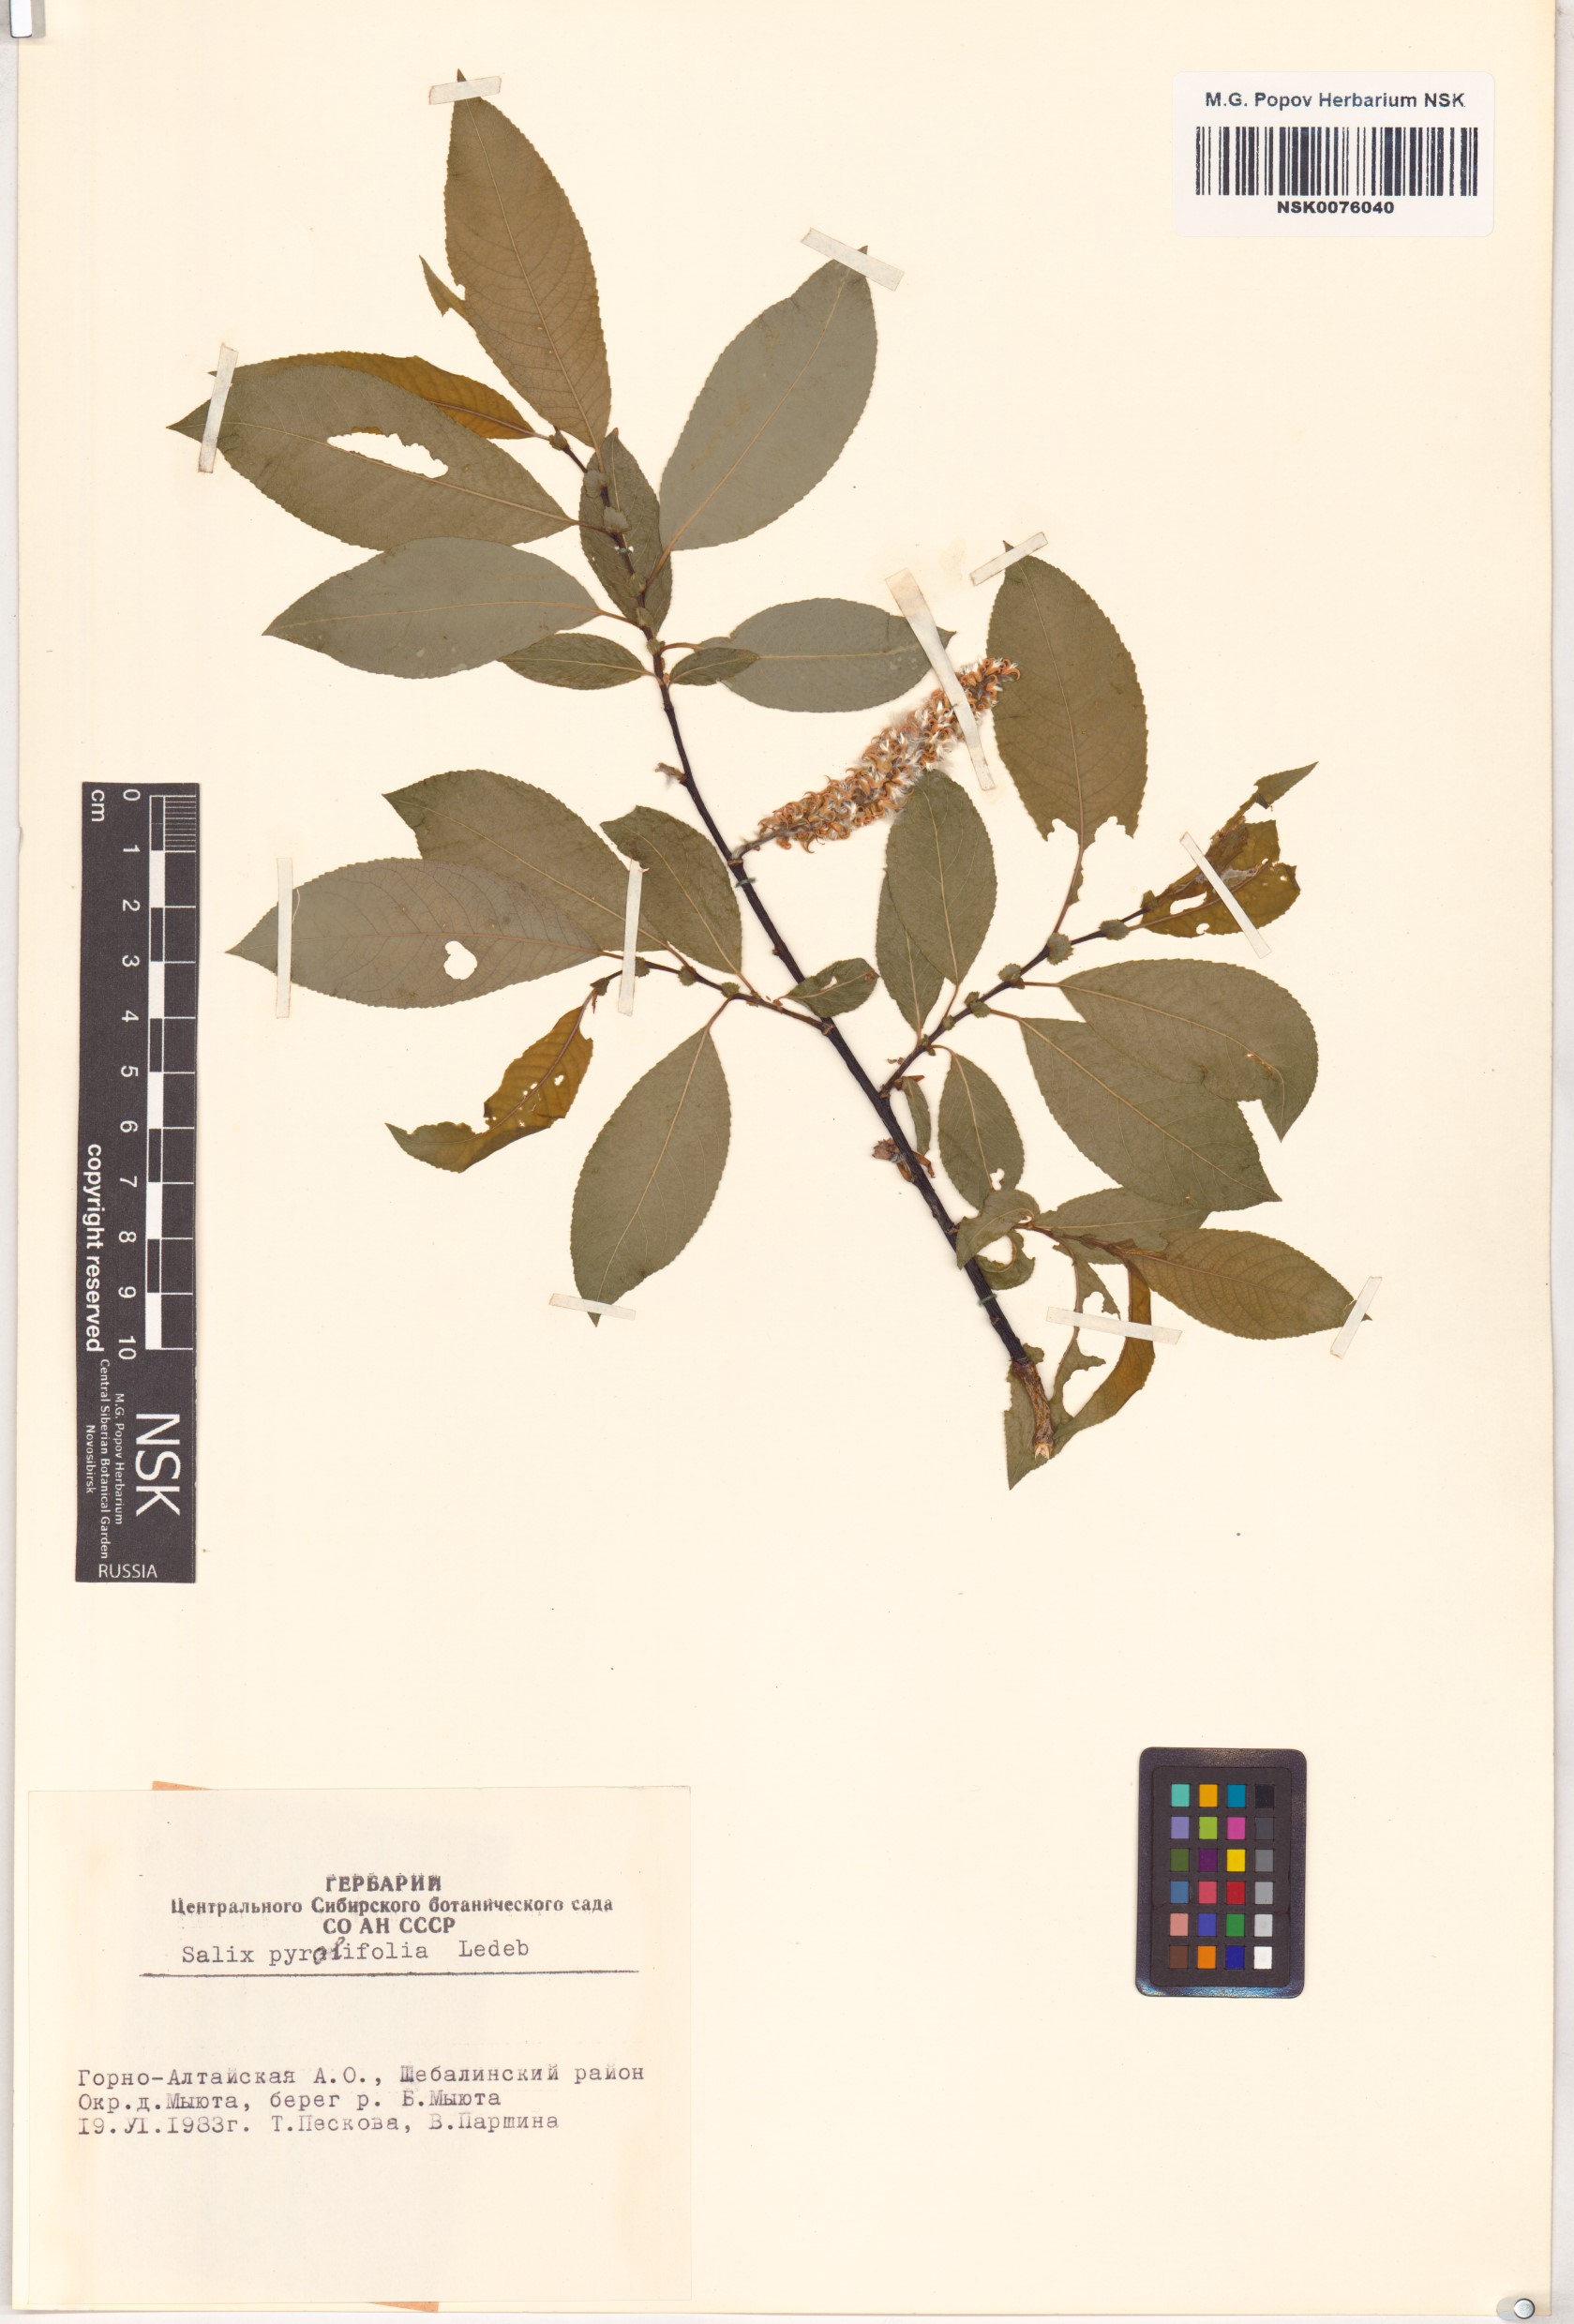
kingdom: Plantae
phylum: Tracheophyta
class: Magnoliopsida
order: Malpighiales
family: Salicaceae
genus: Salix
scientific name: Salix pyrolifolia
